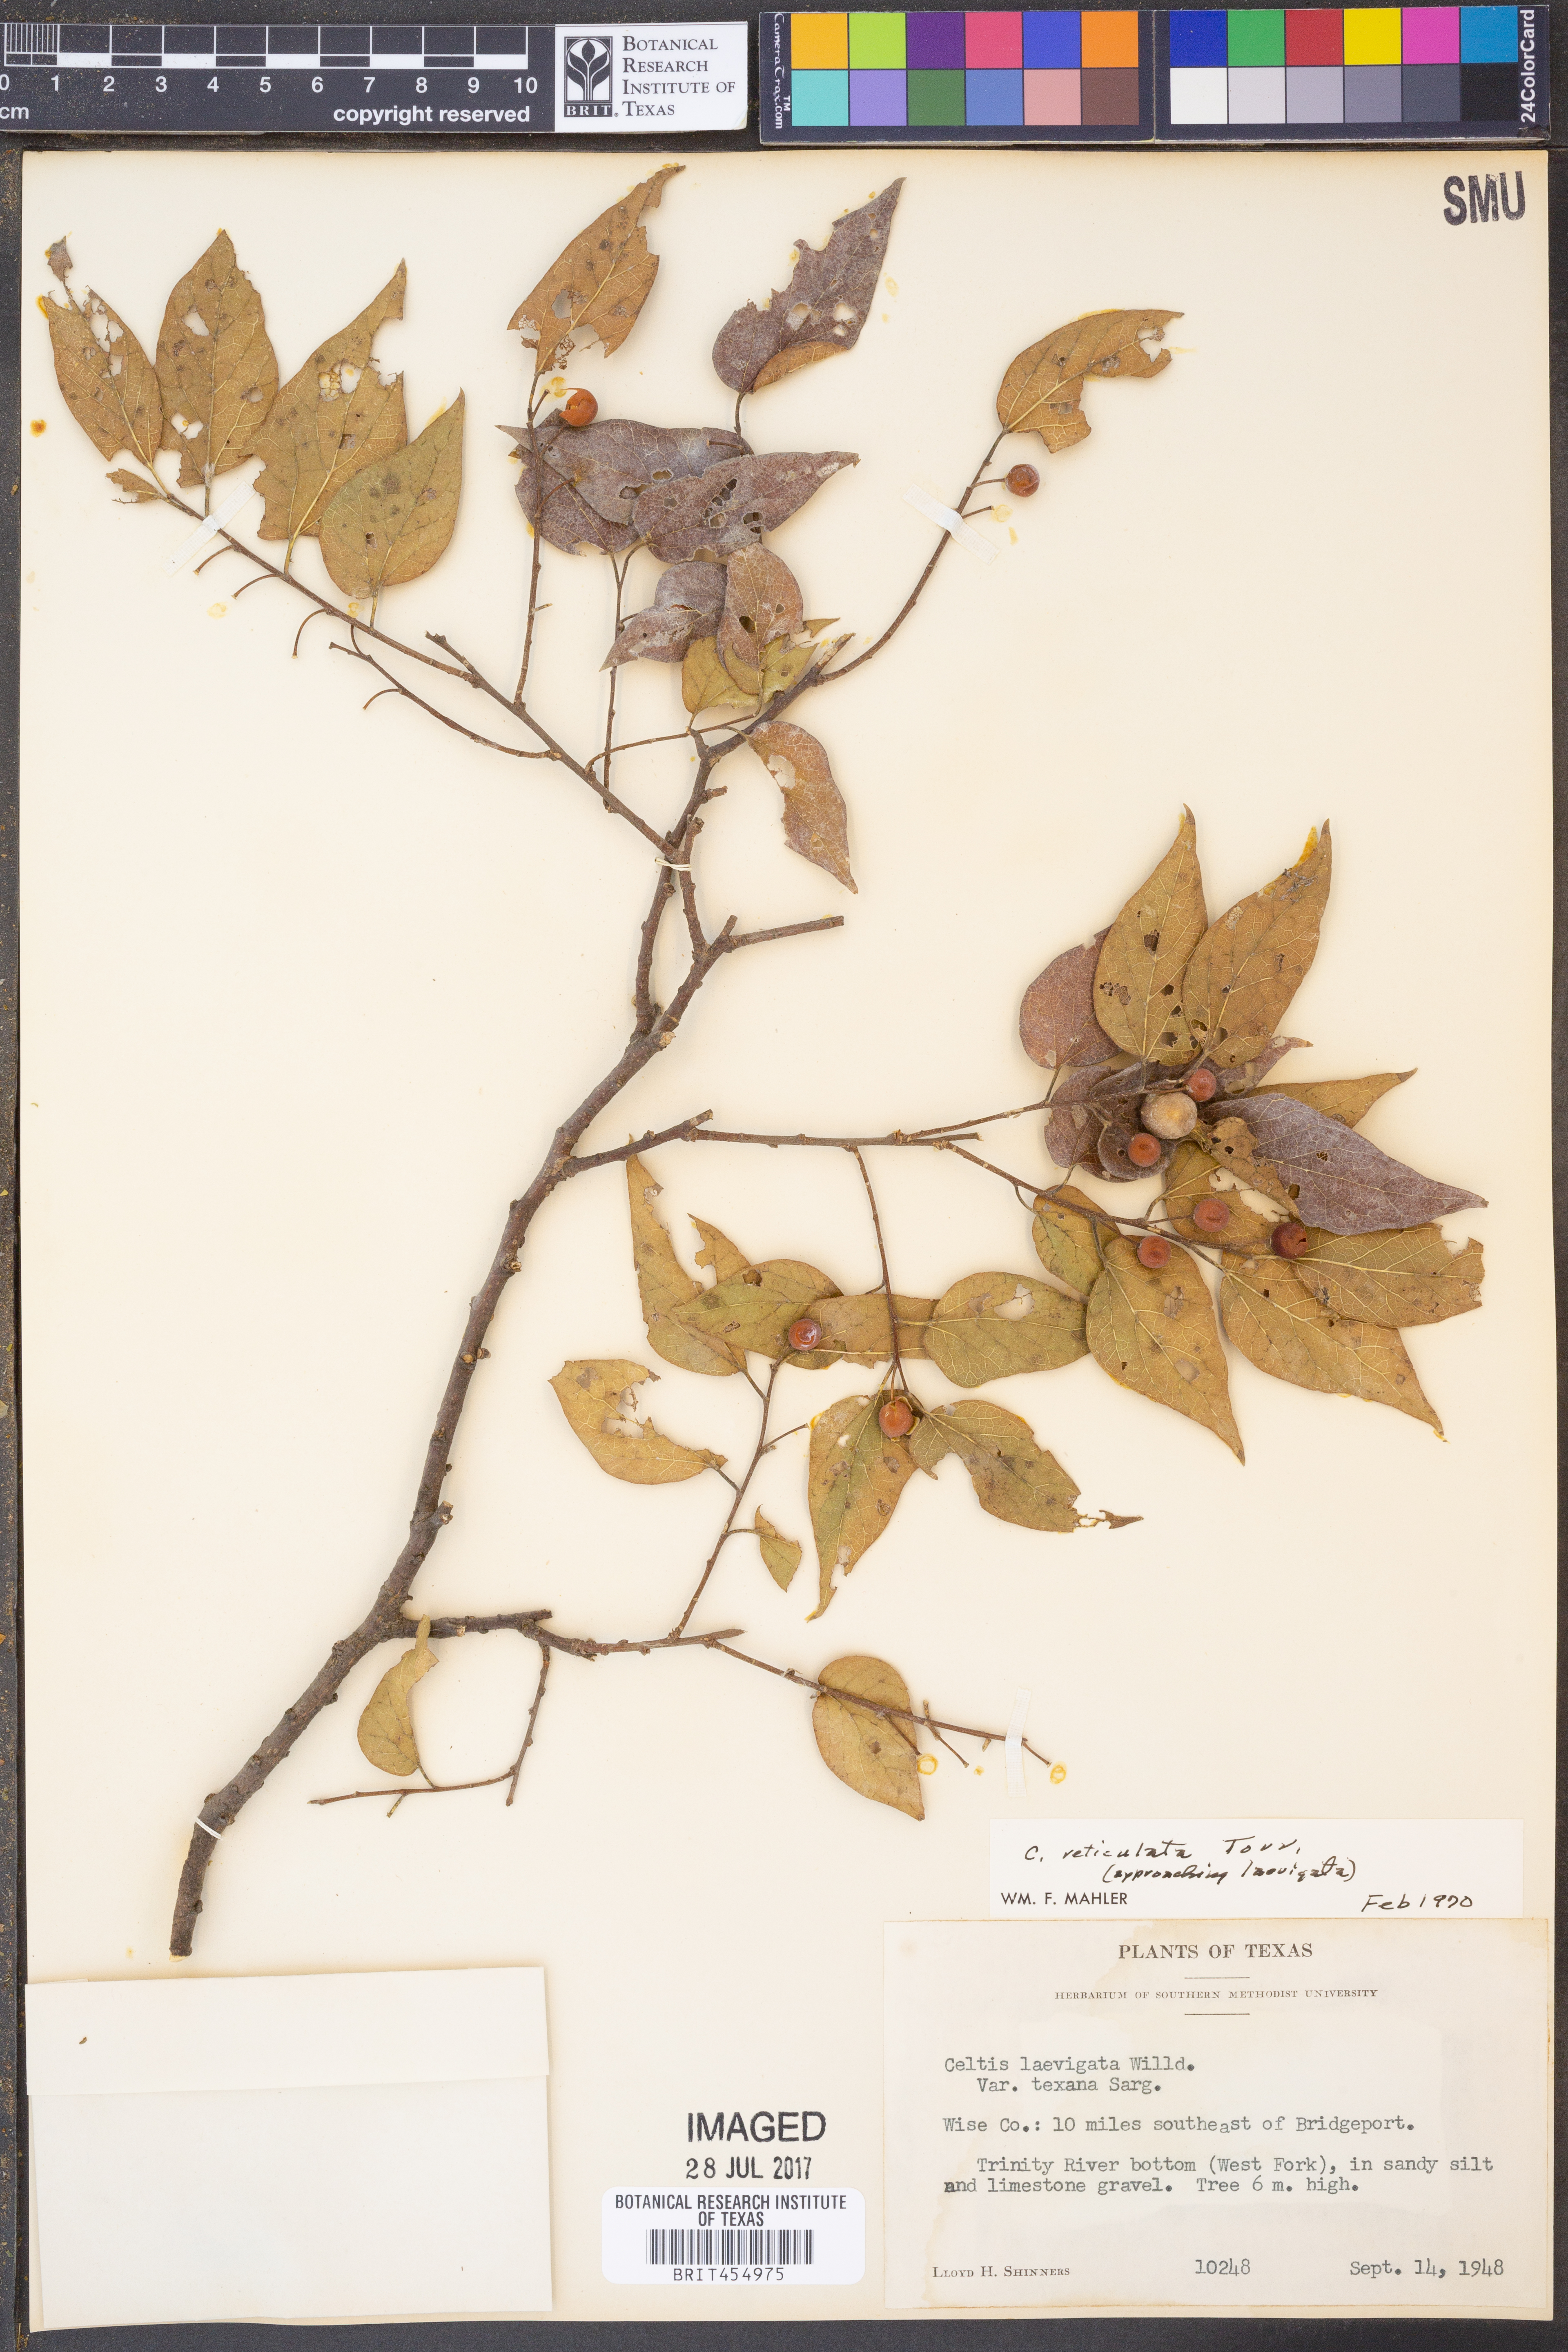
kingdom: Plantae
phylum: Tracheophyta
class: Magnoliopsida
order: Rosales
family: Cannabaceae
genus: Celtis
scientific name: Celtis reticulata
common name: Netleaf hackberry
